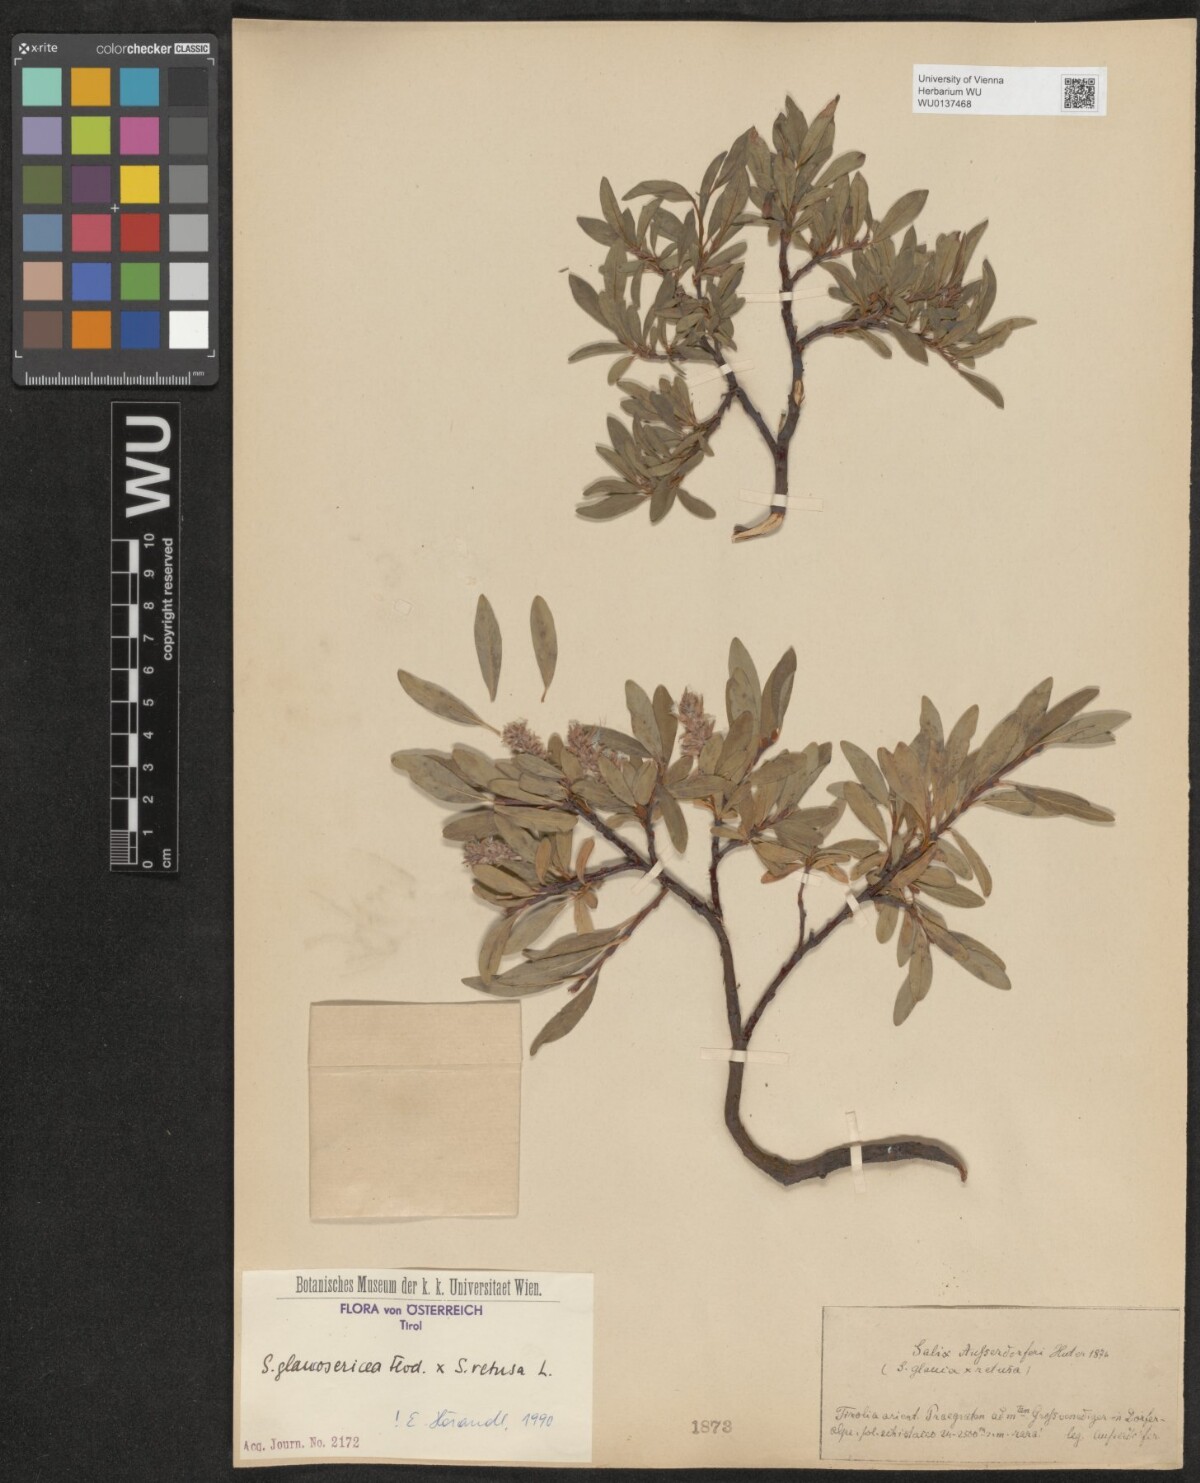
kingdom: Plantae
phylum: Tracheophyta
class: Magnoliopsida
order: Malpighiales
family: Salicaceae
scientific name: Salicaceae
